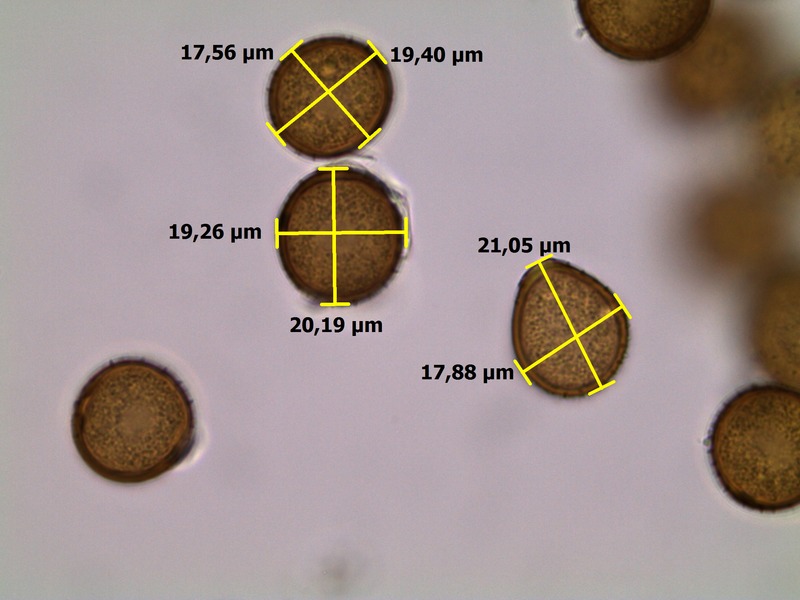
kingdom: Fungi
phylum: Basidiomycota
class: Pucciniomycetes
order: Pucciniales
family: Pucciniaceae
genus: Puccinia
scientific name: Puccinia lapsanae
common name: Nipplewort rust
